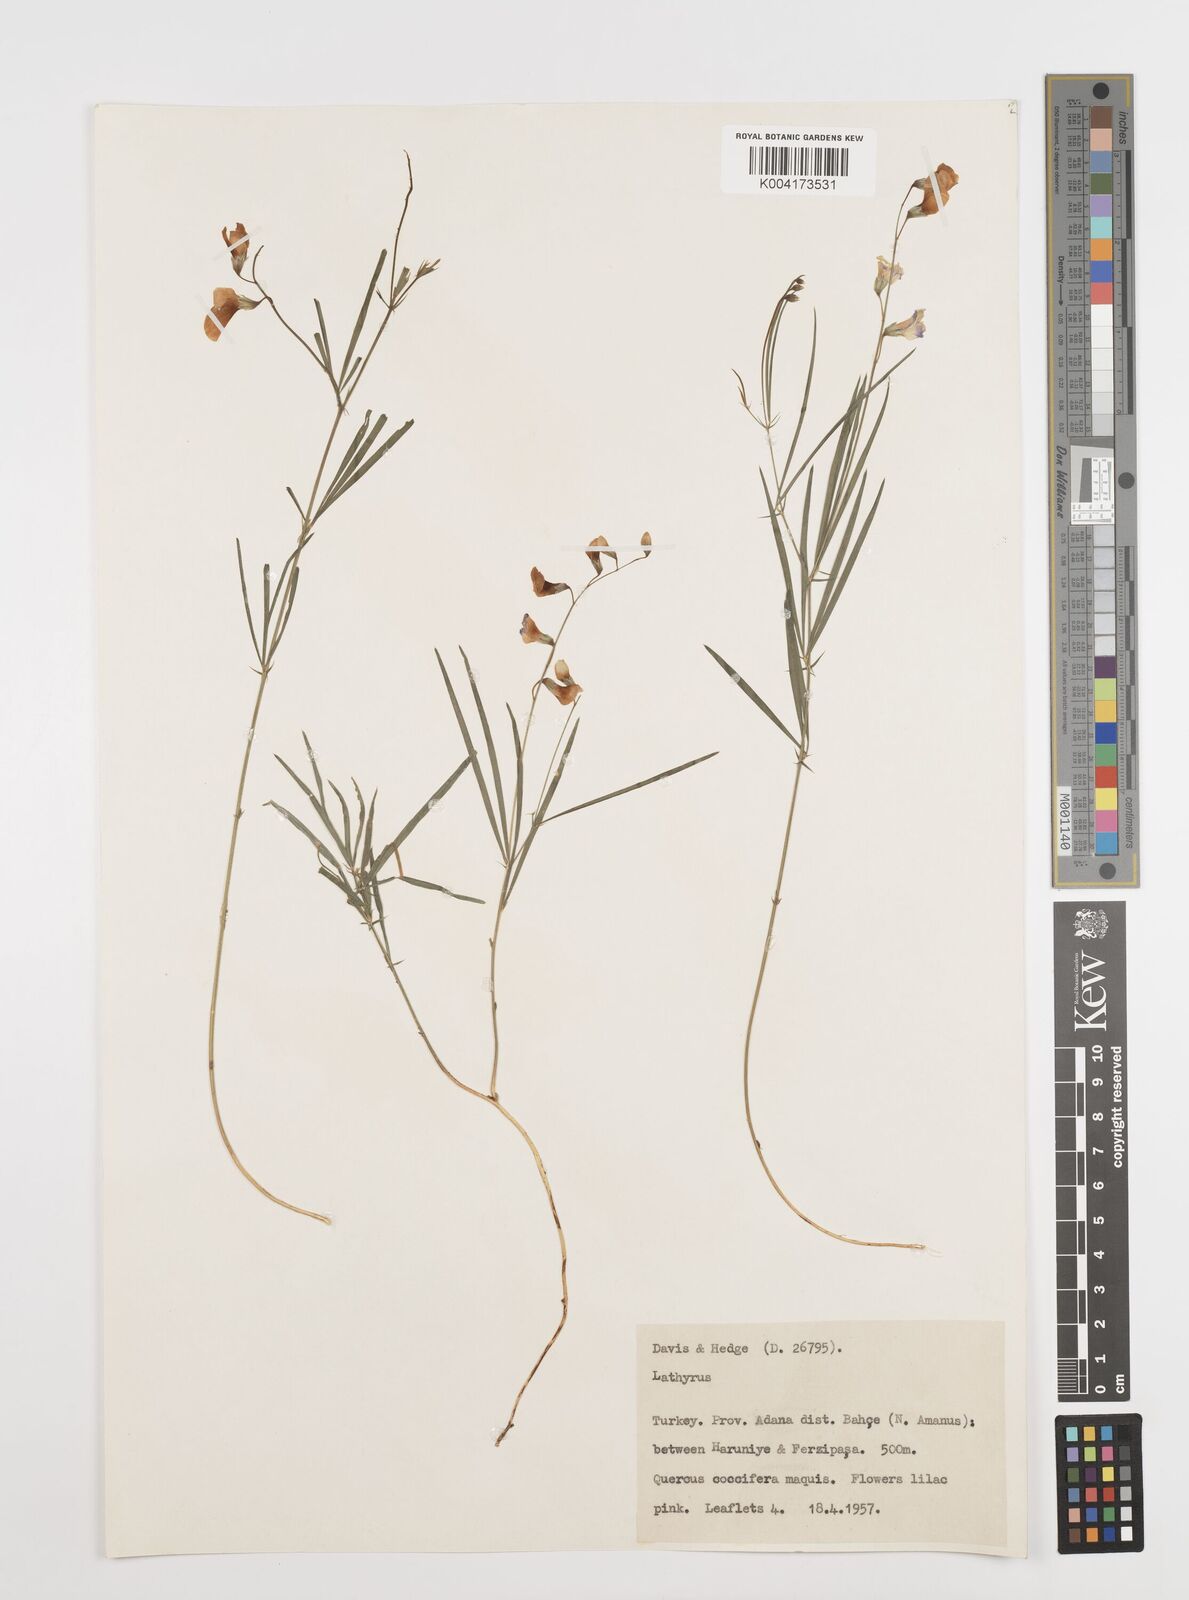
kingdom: Plantae
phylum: Tracheophyta
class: Magnoliopsida
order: Fabales
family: Fabaceae
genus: Lathyrus
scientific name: Lathyrus spathulatus
